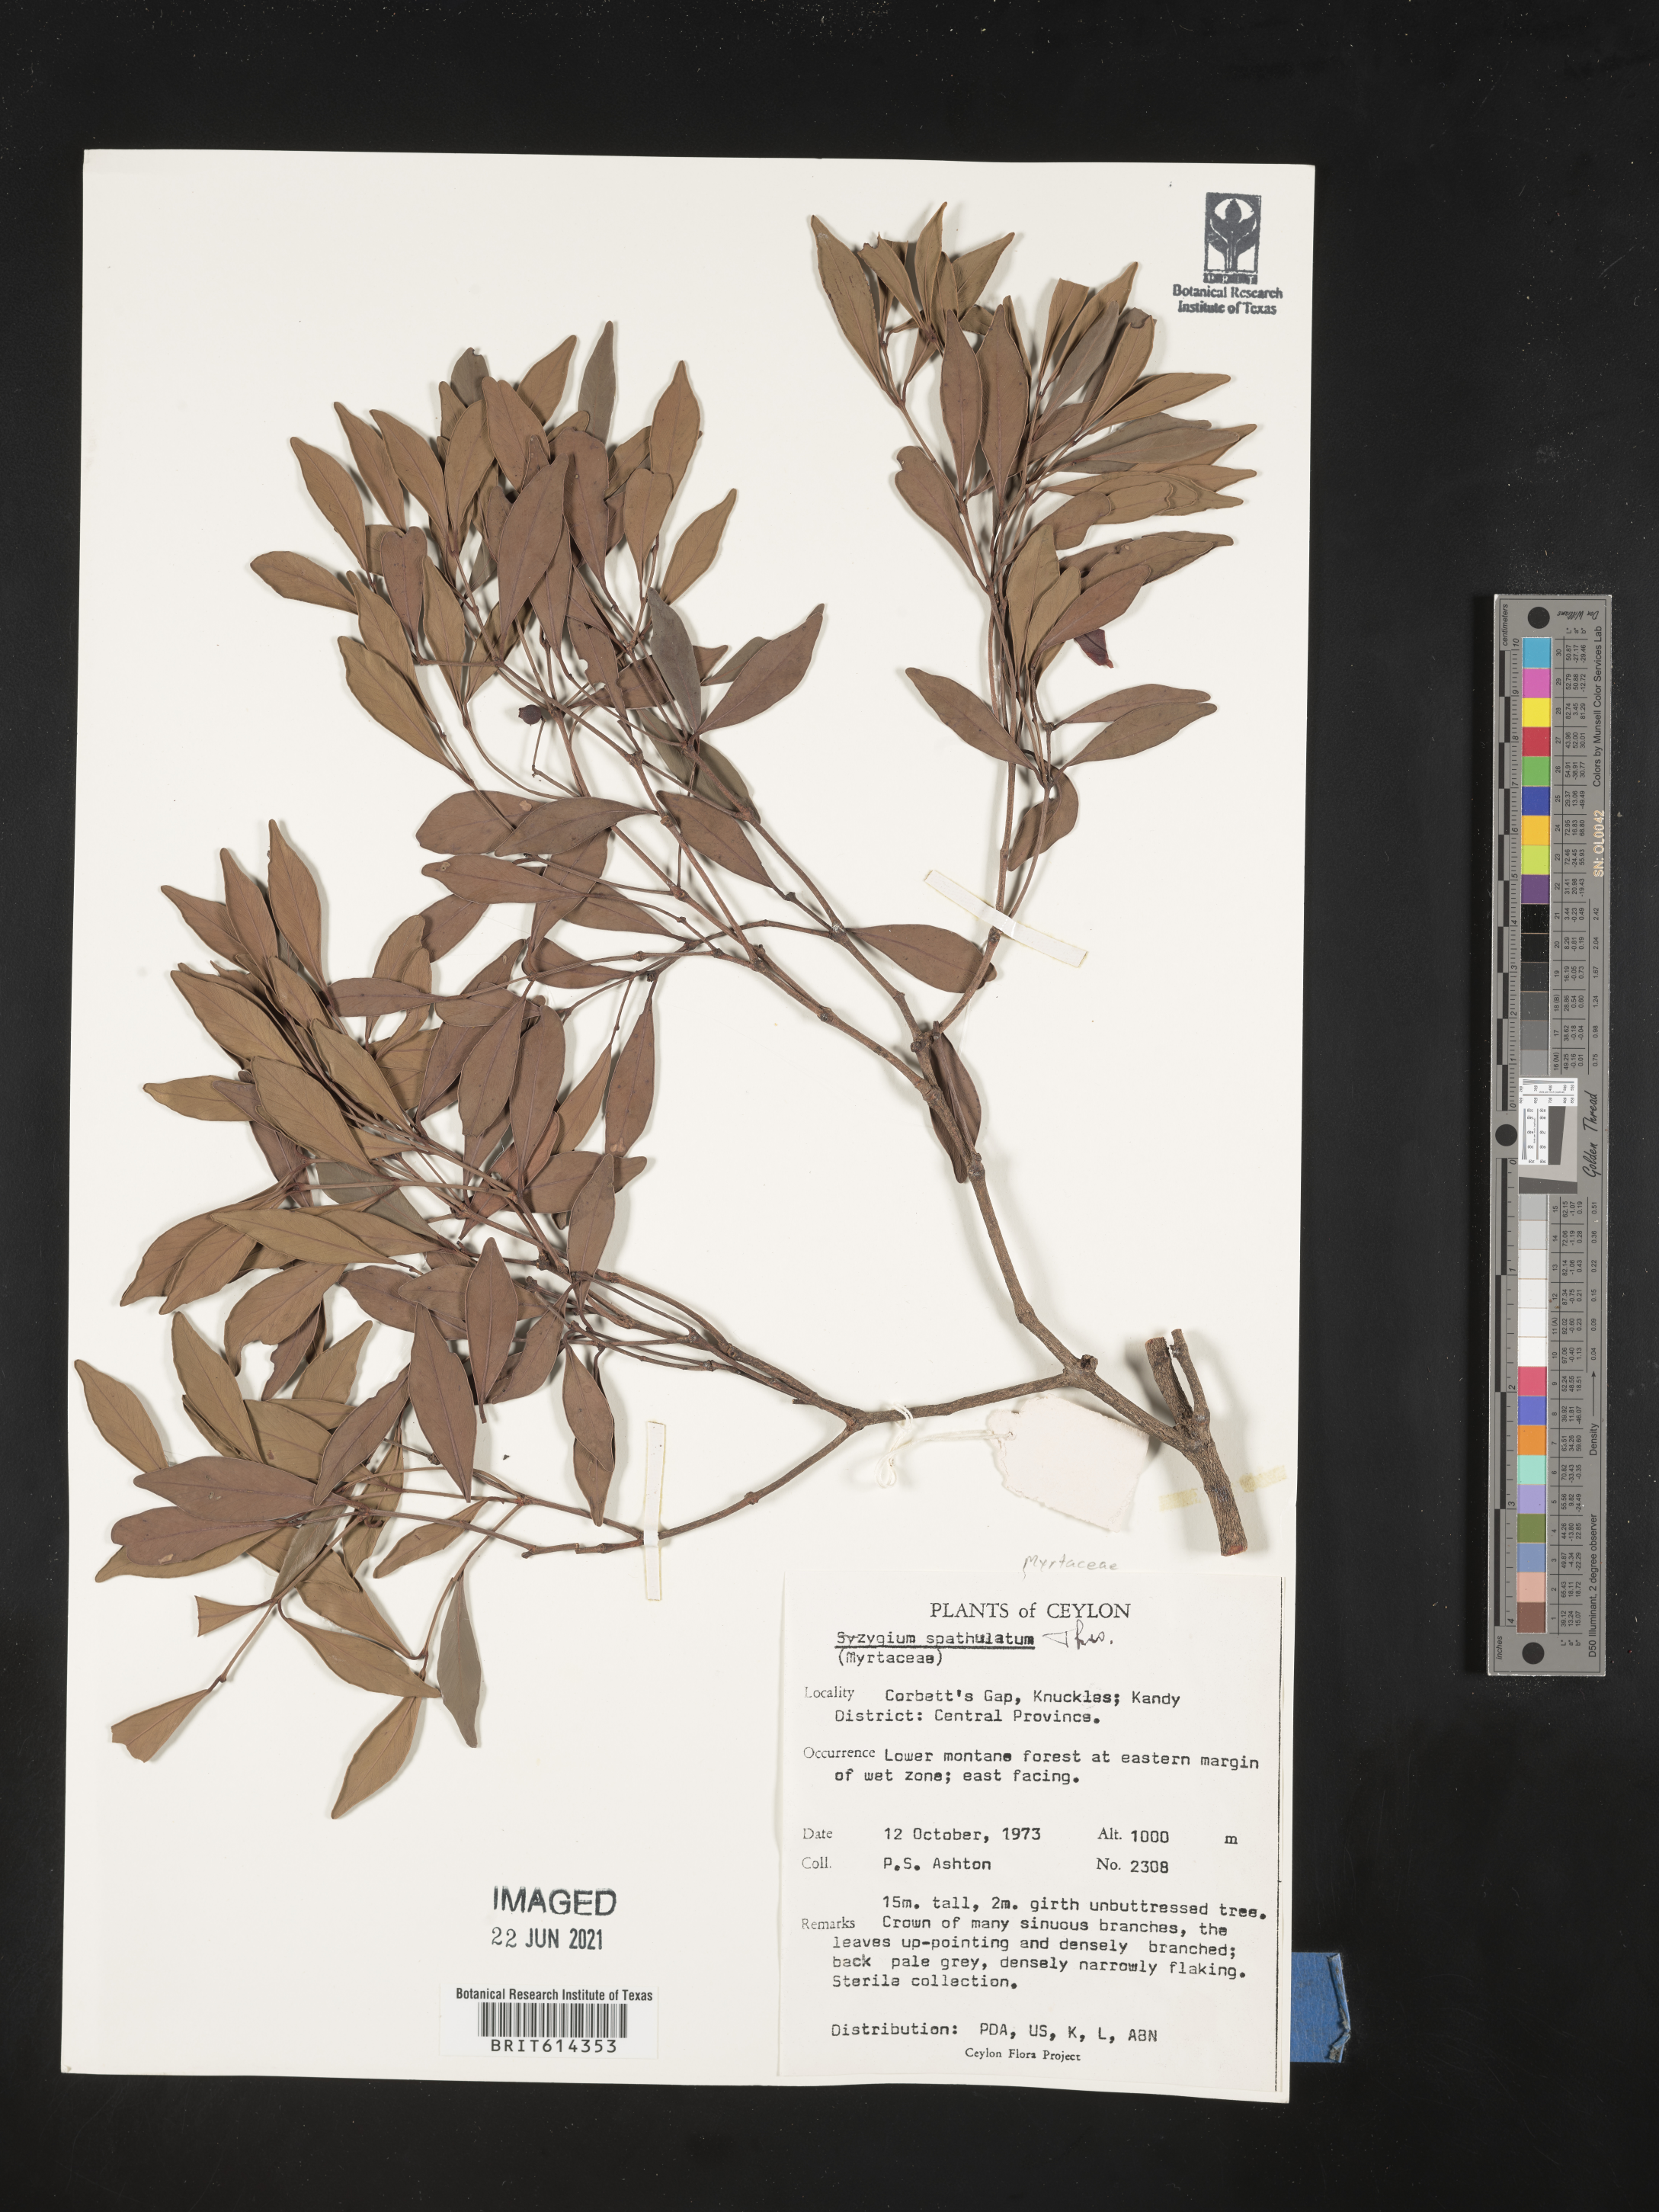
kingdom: Plantae
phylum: Tracheophyta
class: Magnoliopsida
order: Myrtales
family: Myrtaceae
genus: Syzygium
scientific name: Syzygium spathulatum
